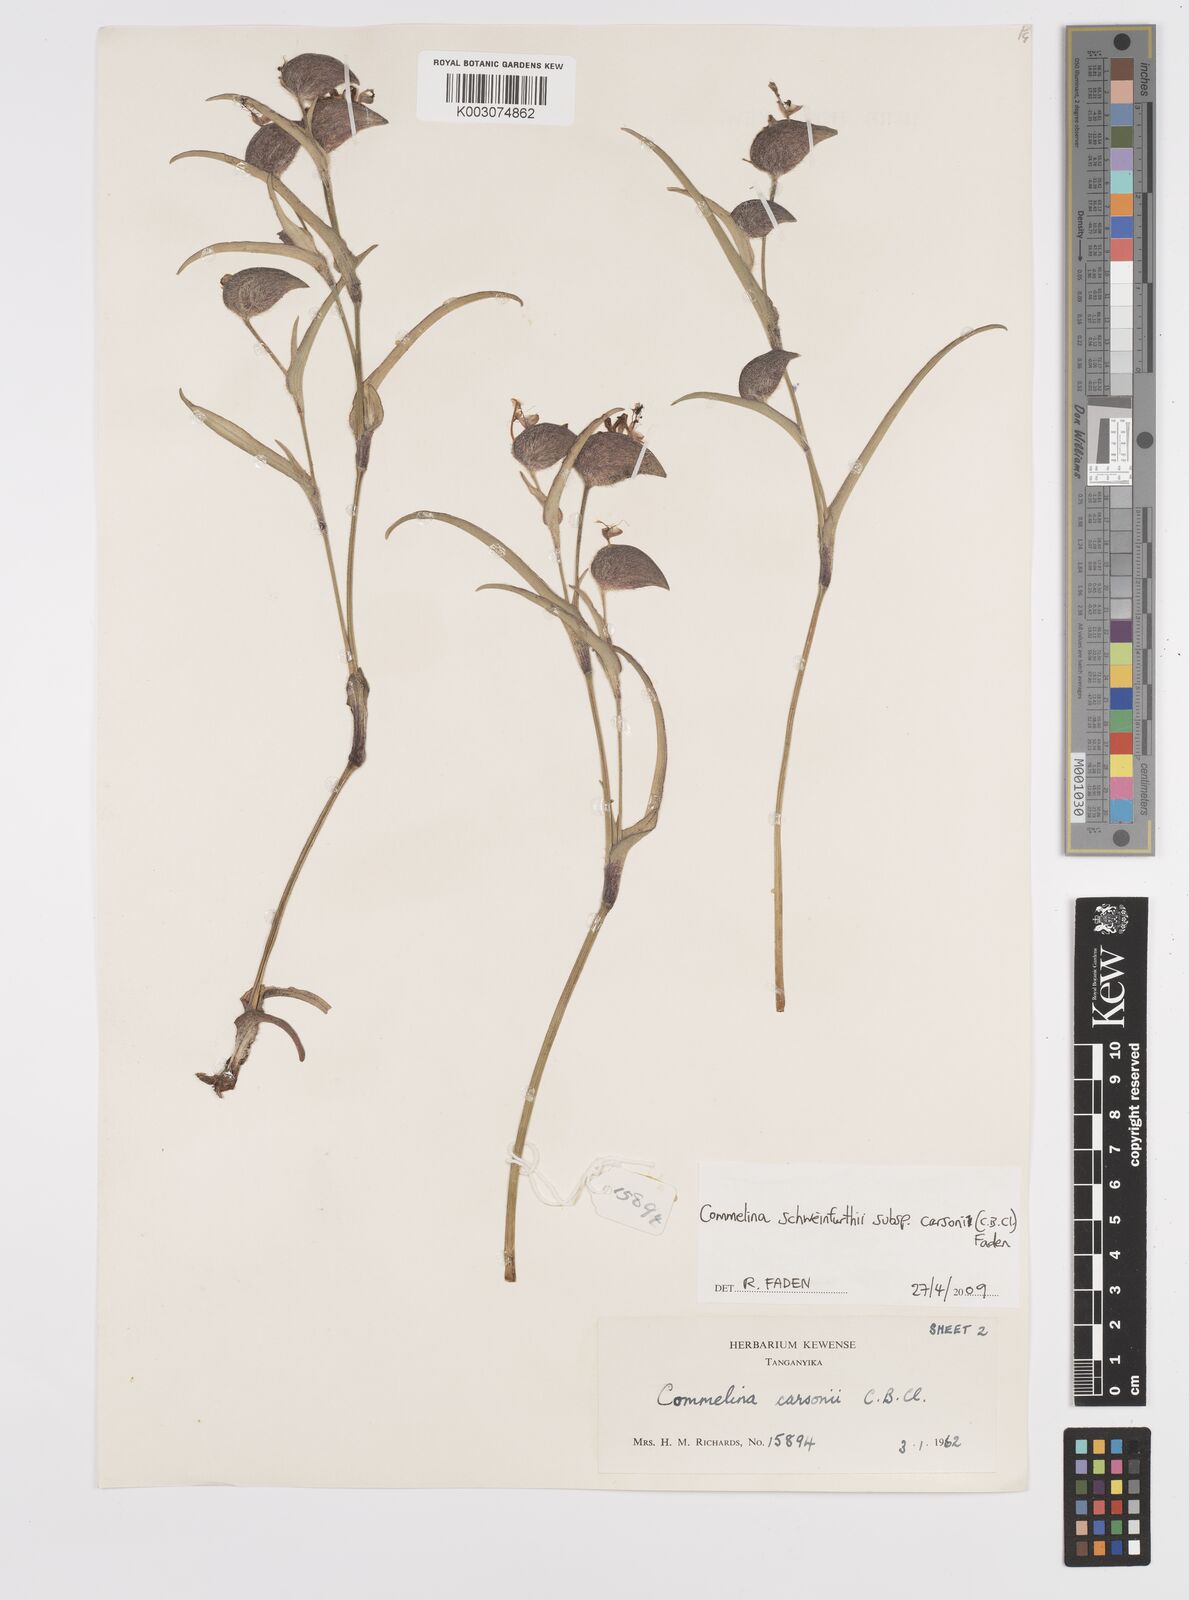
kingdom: Plantae
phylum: Tracheophyta
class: Liliopsida
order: Commelinales
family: Commelinaceae
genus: Commelina
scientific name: Commelina schweinfurthii
